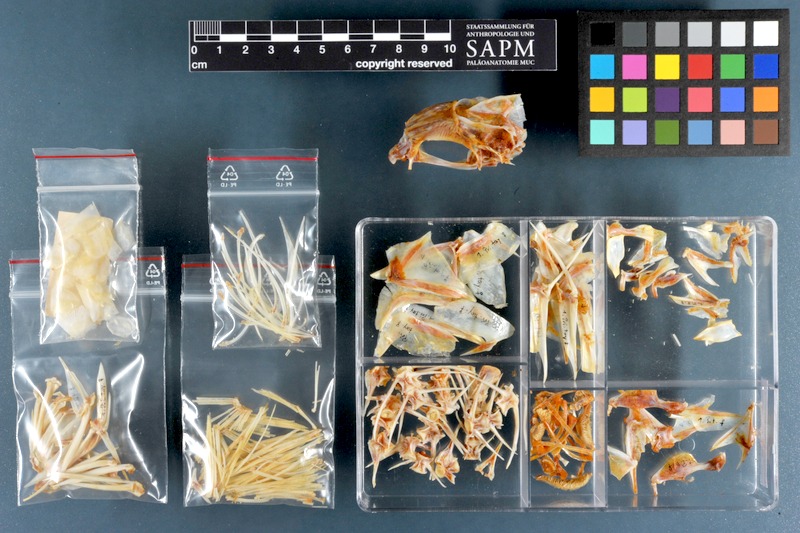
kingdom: Animalia
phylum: Chordata
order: Perciformes
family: Priacanthidae
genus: Priacanthus
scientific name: Priacanthus tayenus
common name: Purple-spotted bigeye
